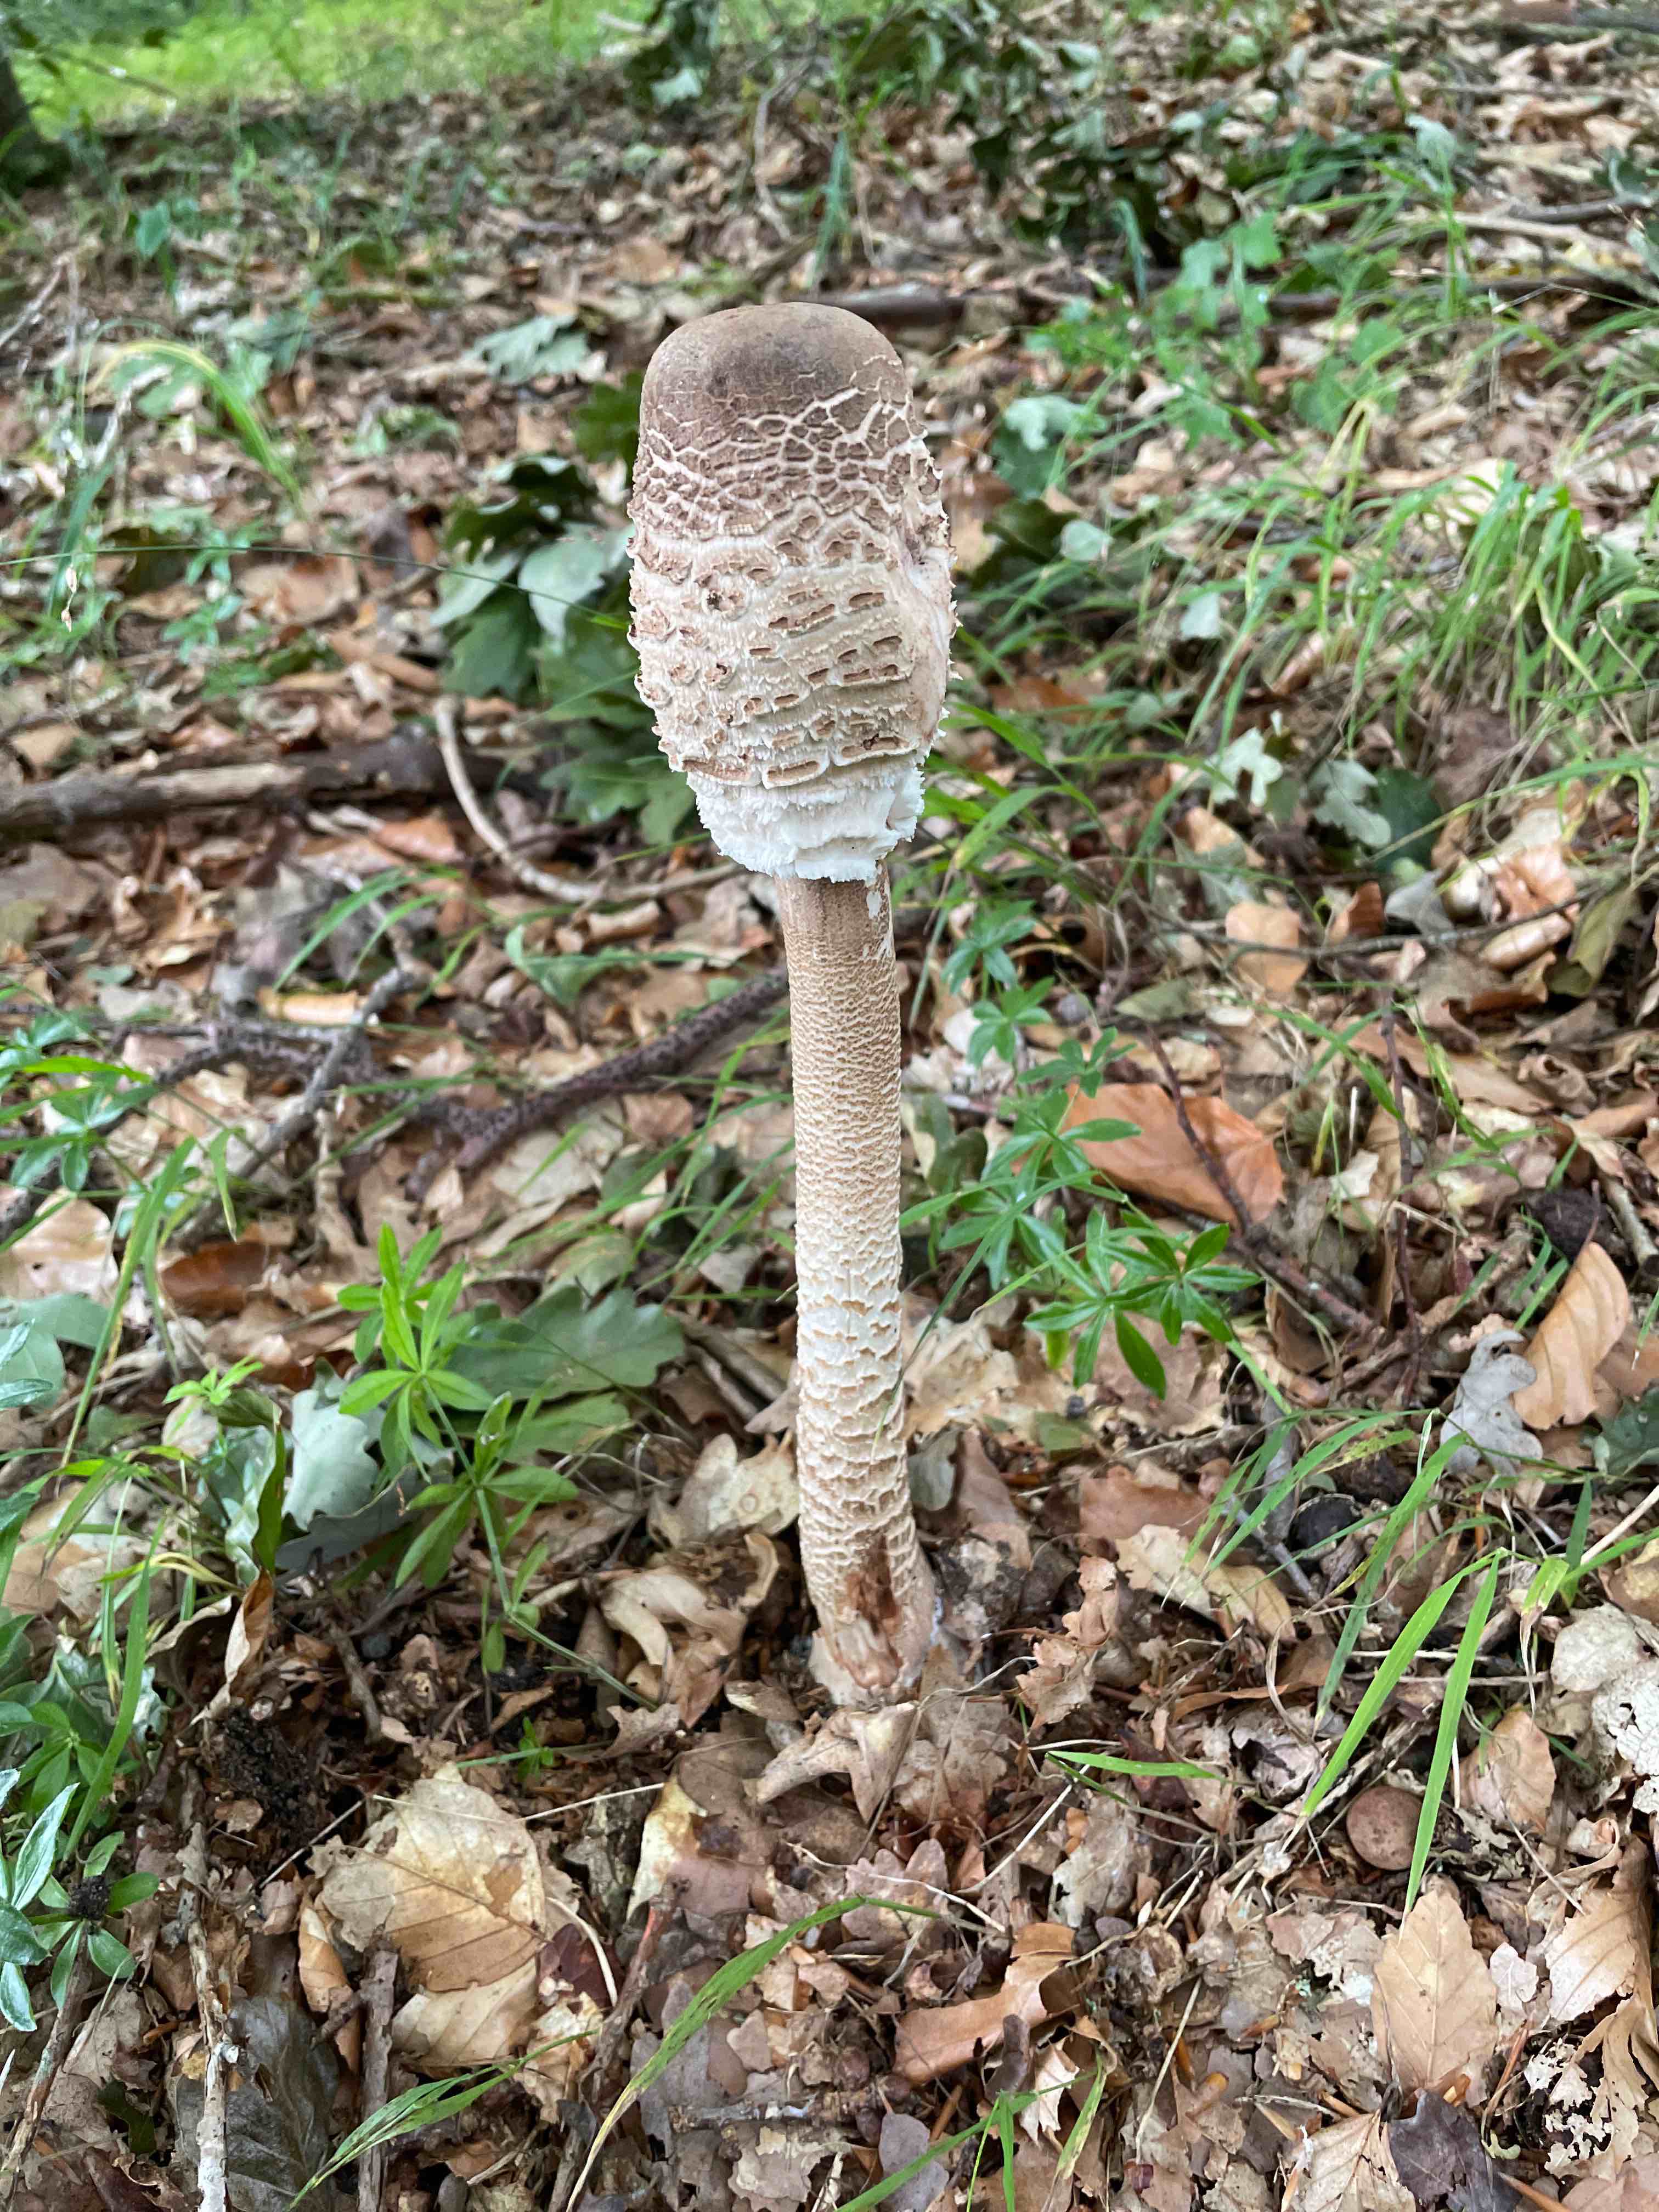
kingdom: Fungi
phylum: Basidiomycota
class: Agaricomycetes
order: Agaricales
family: Agaricaceae
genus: Macrolepiota
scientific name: Macrolepiota procera
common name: stor kæmpeparasolhat
